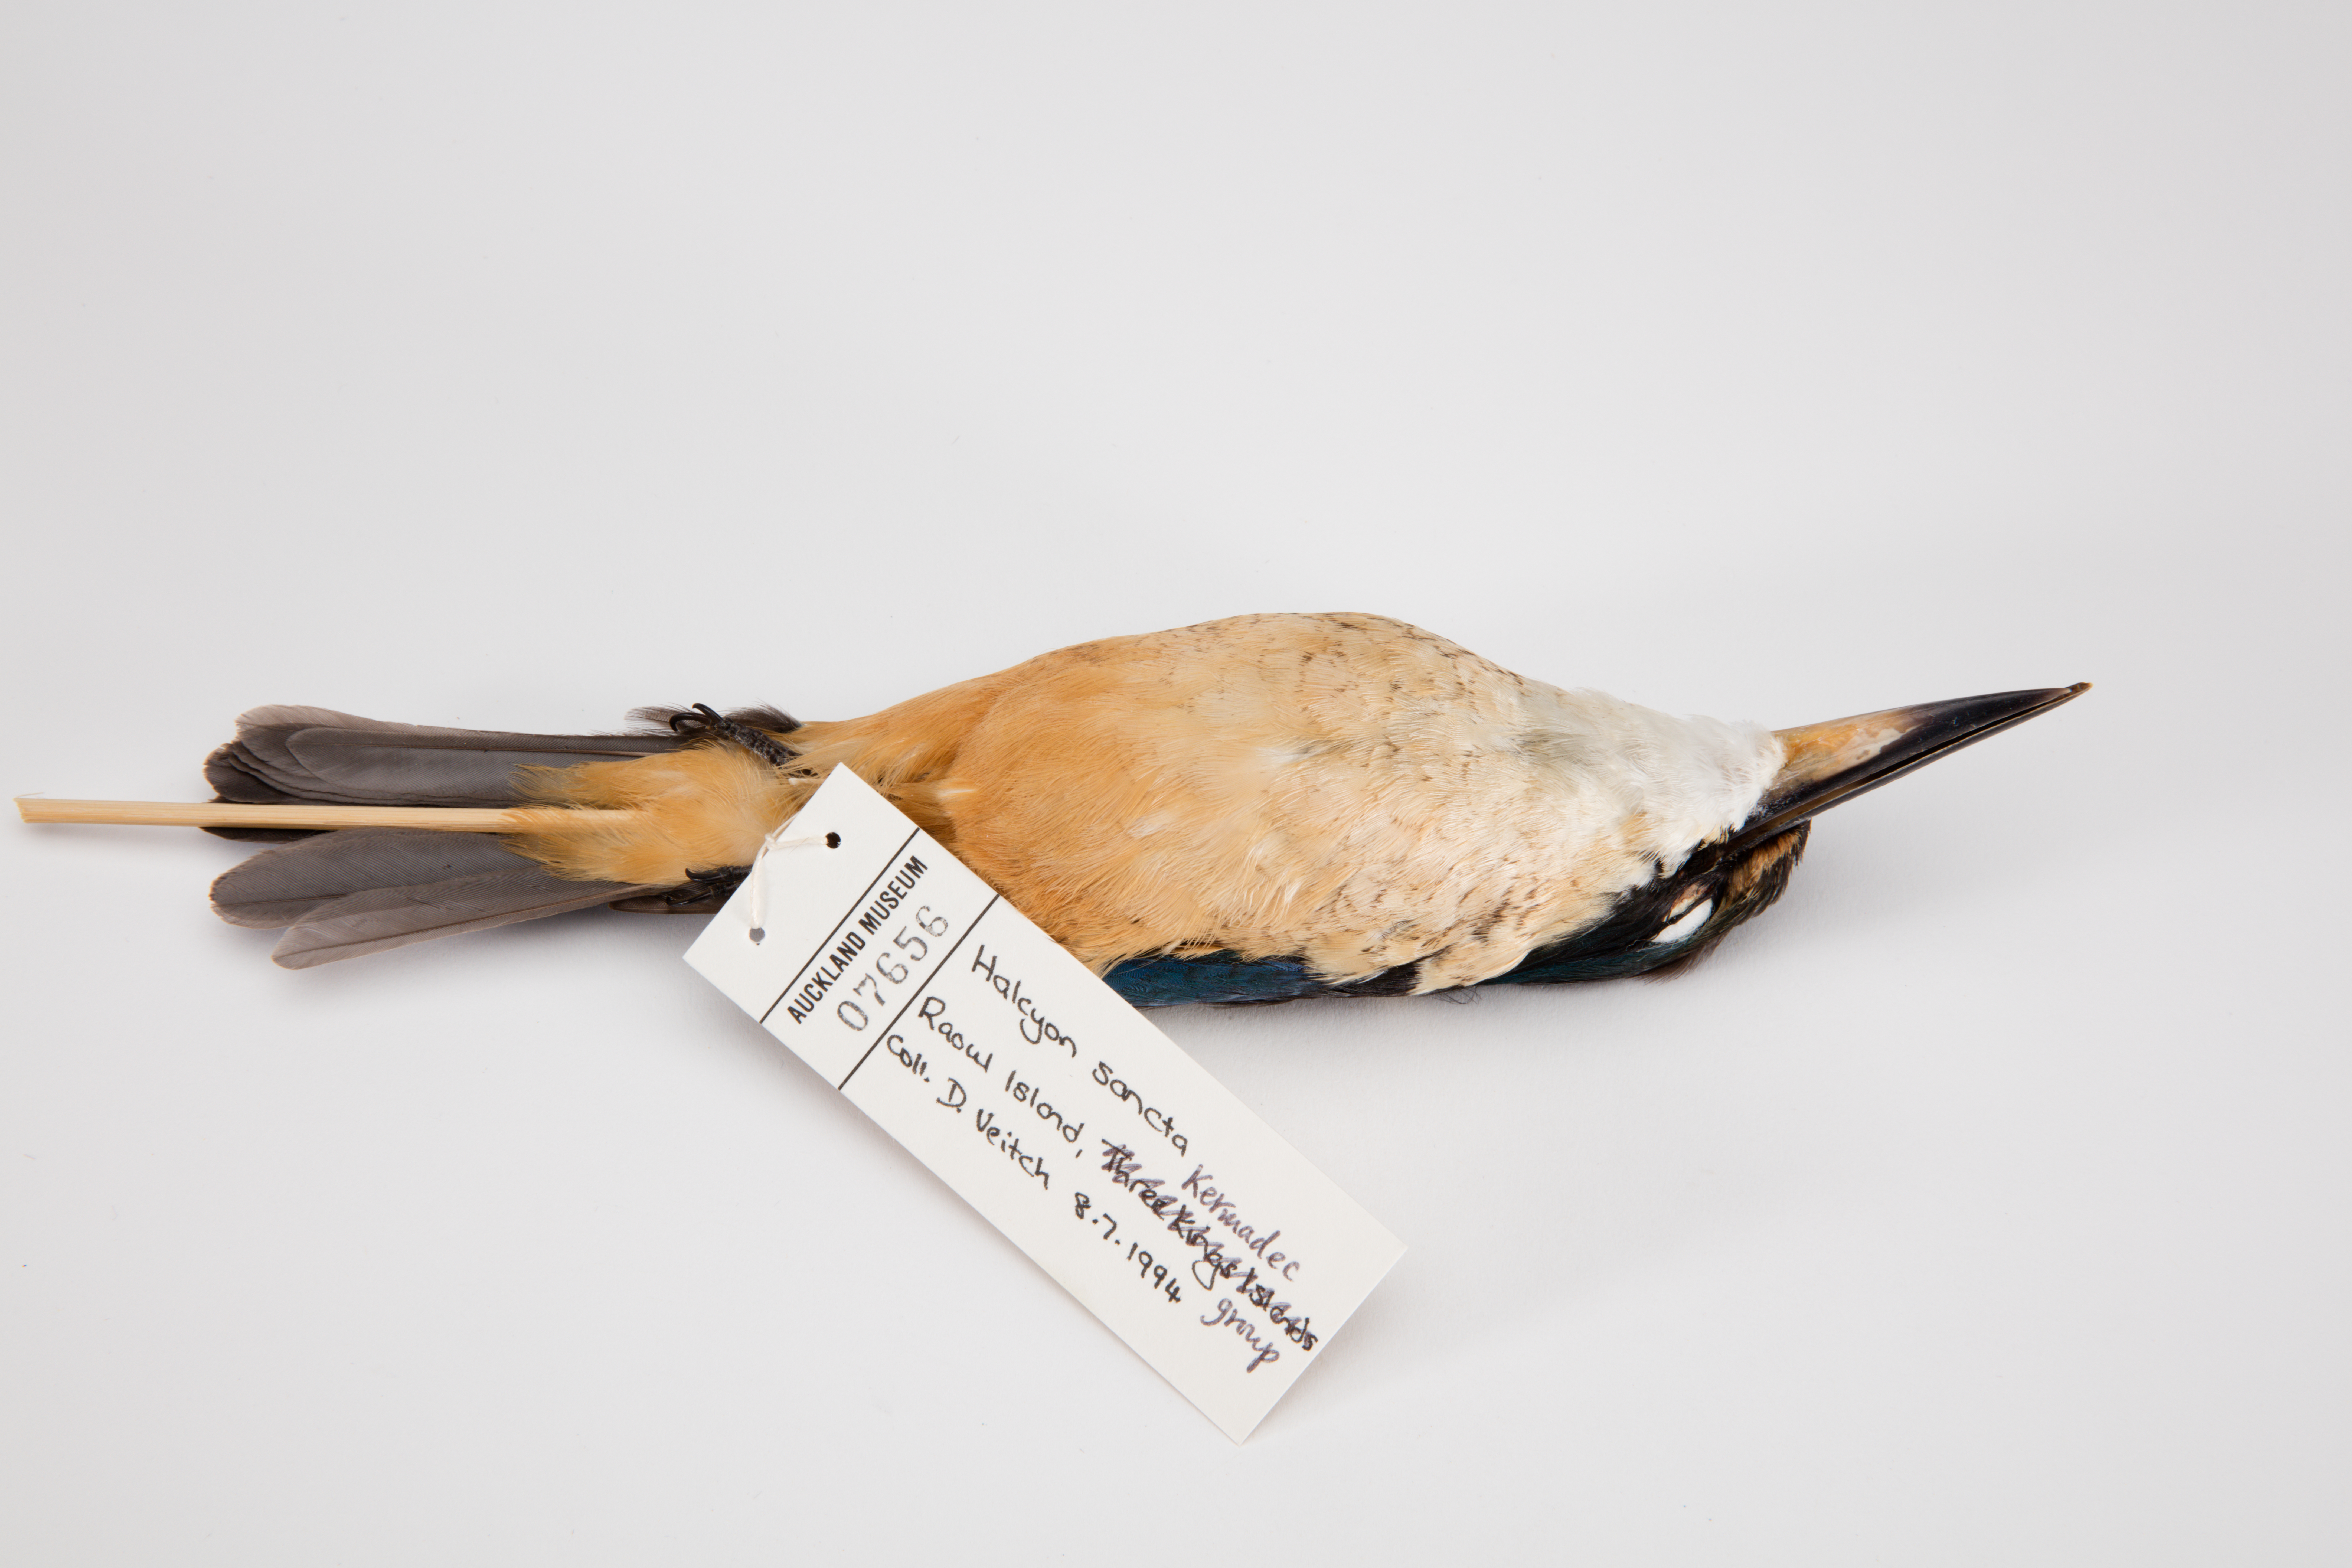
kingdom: Animalia
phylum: Chordata
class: Aves
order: Coraciiformes
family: Alcedinidae
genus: Todiramphus
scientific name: Todiramphus sanctus
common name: Sacred kingfisher
